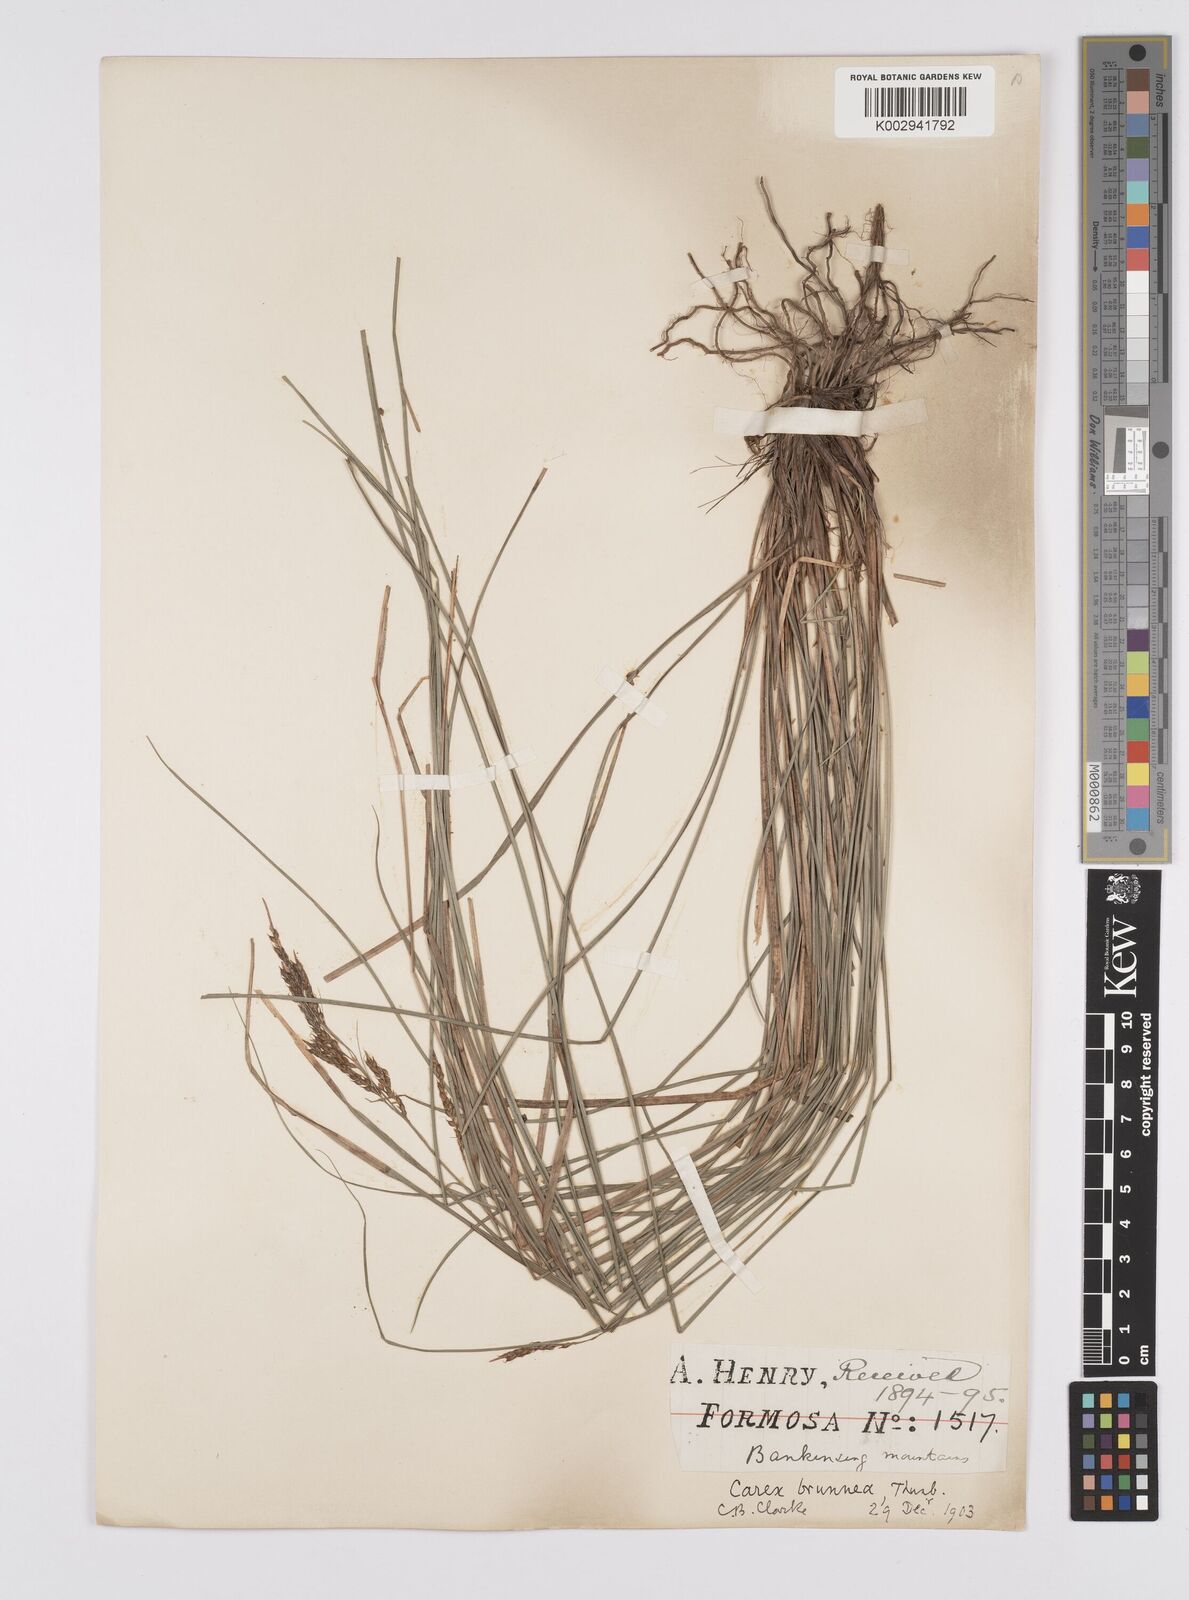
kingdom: Plantae
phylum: Tracheophyta
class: Liliopsida
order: Poales
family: Cyperaceae
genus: Carex
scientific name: Carex brunnea
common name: Greater brown sedge
